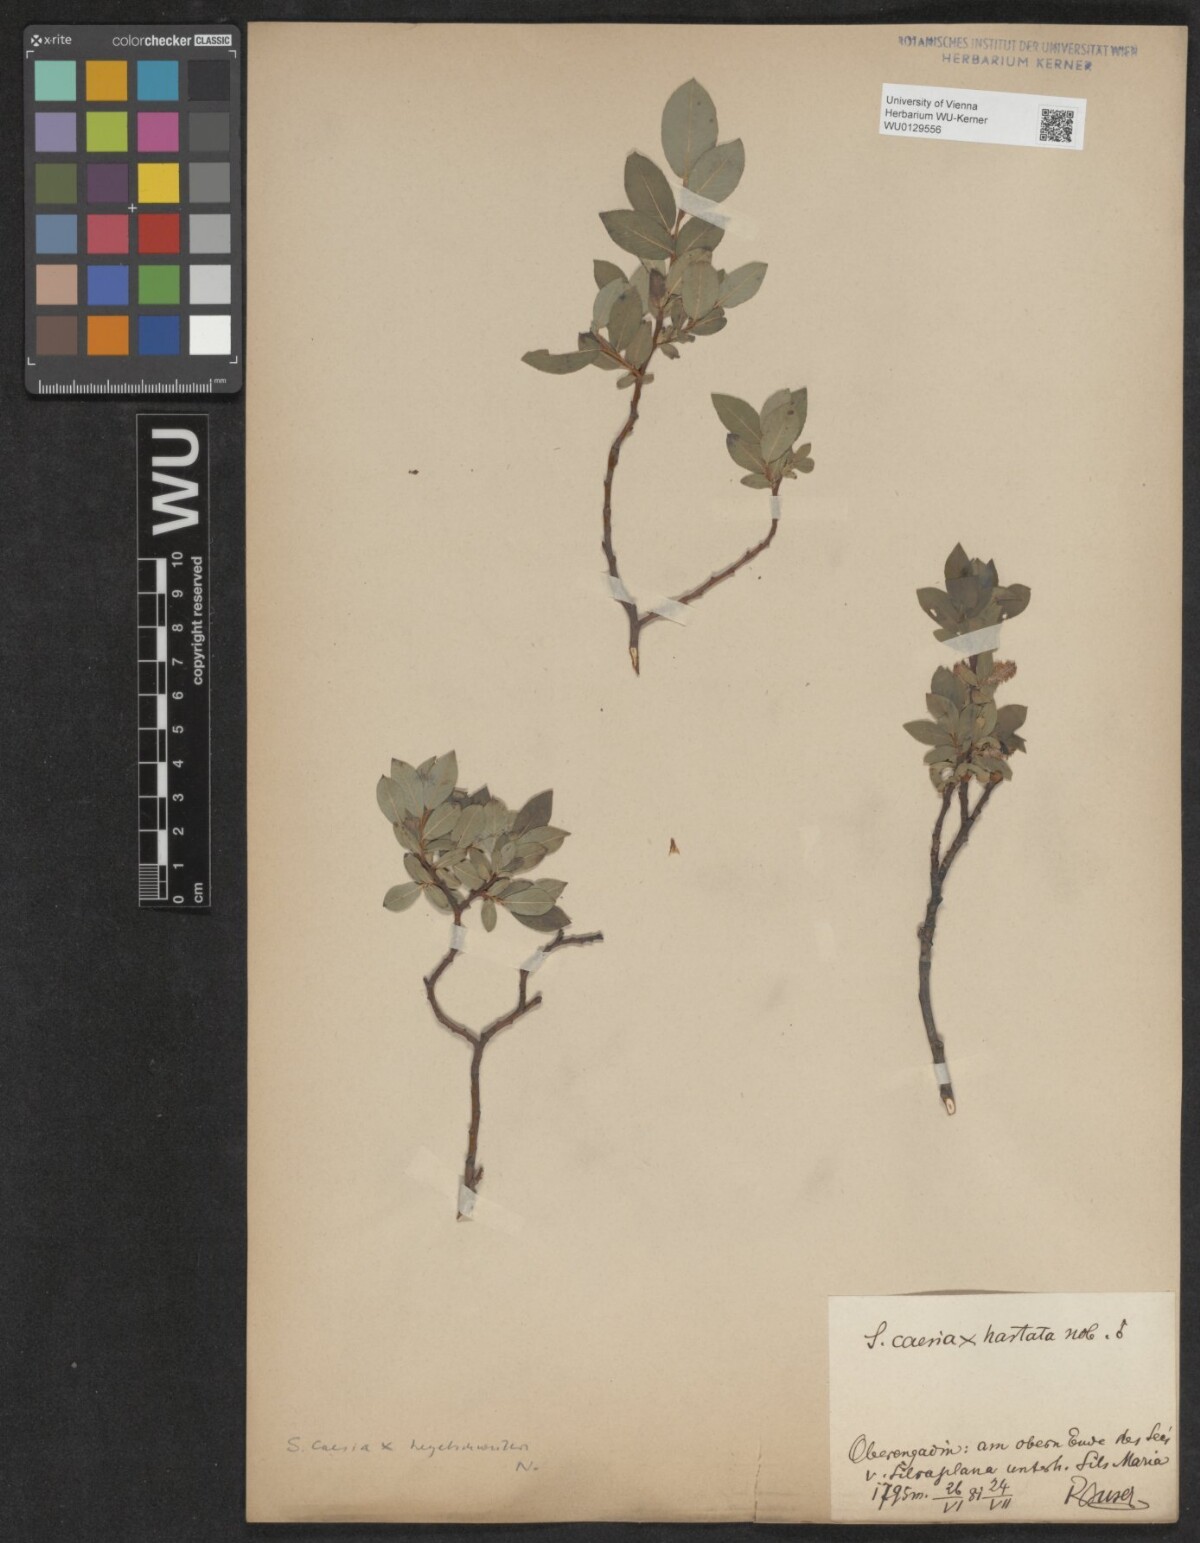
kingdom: Plantae
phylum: Tracheophyta
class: Magnoliopsida
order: Malpighiales
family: Salicaceae
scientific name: Salicaceae
